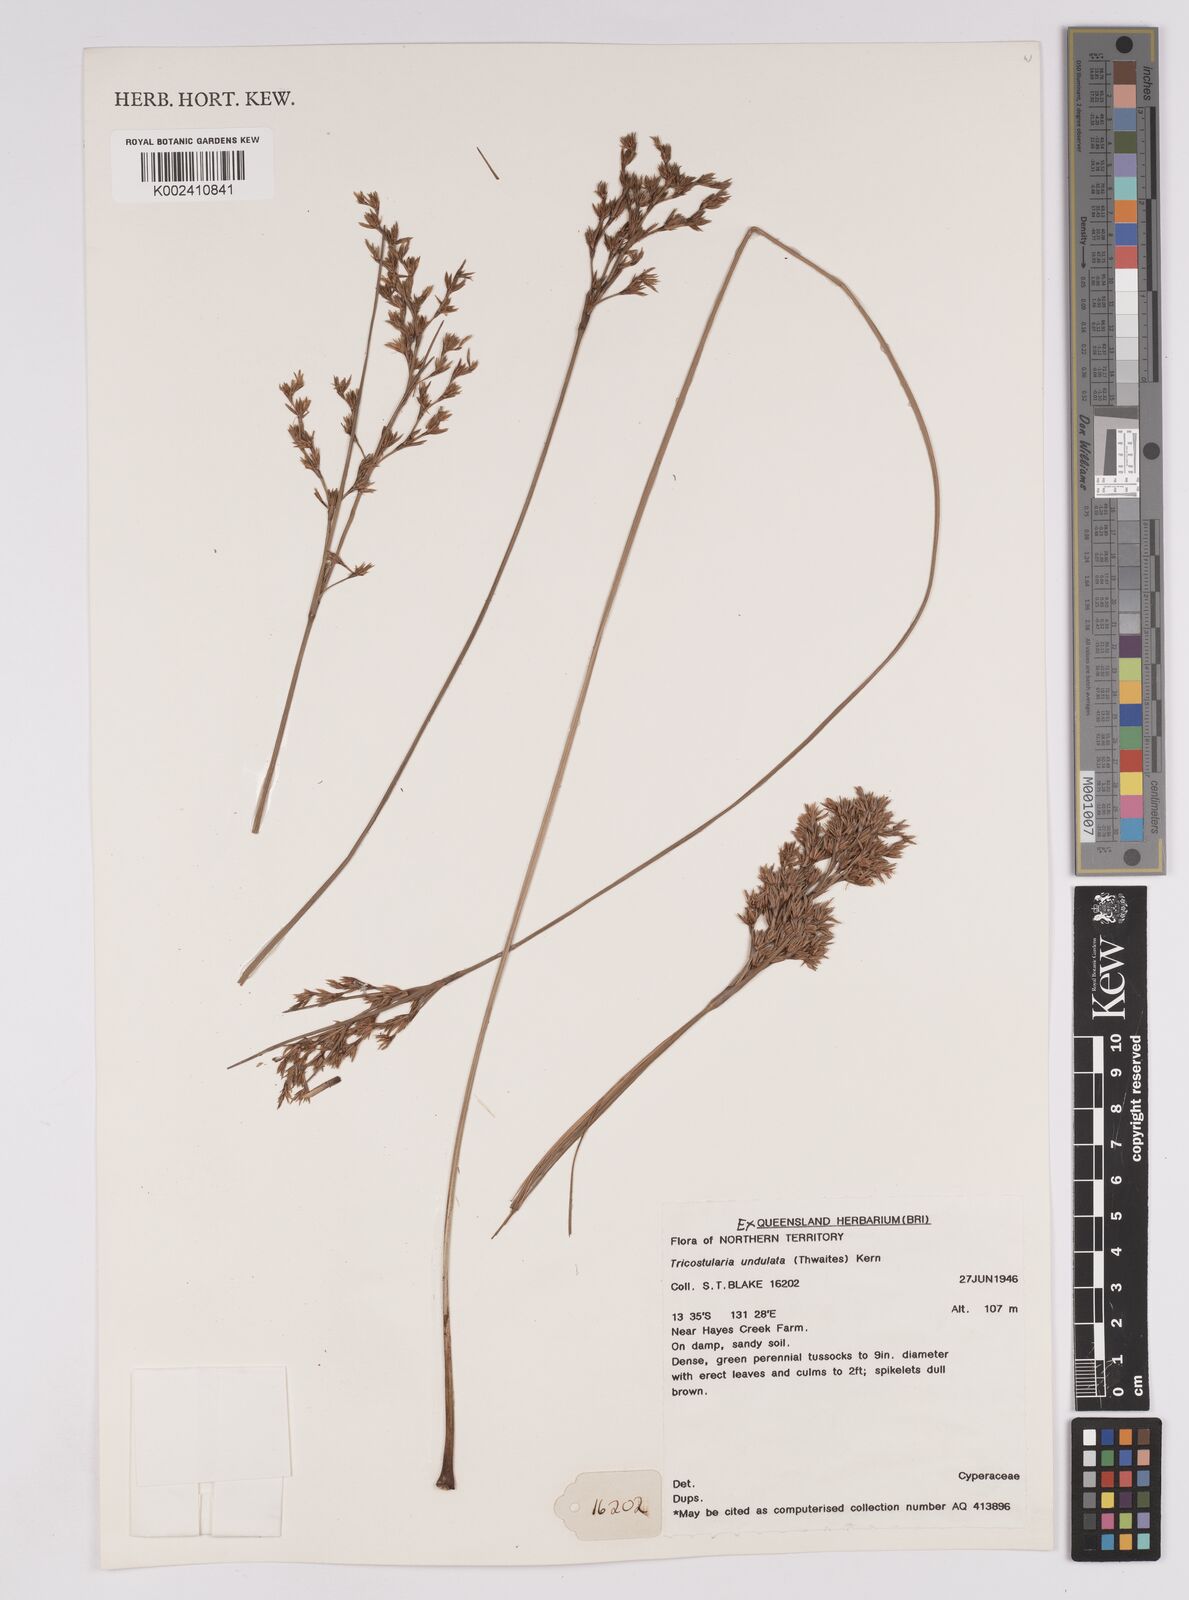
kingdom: Plantae
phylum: Tracheophyta
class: Liliopsida
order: Poales
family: Cyperaceae
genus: Anthelepis
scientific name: Anthelepis undulata
